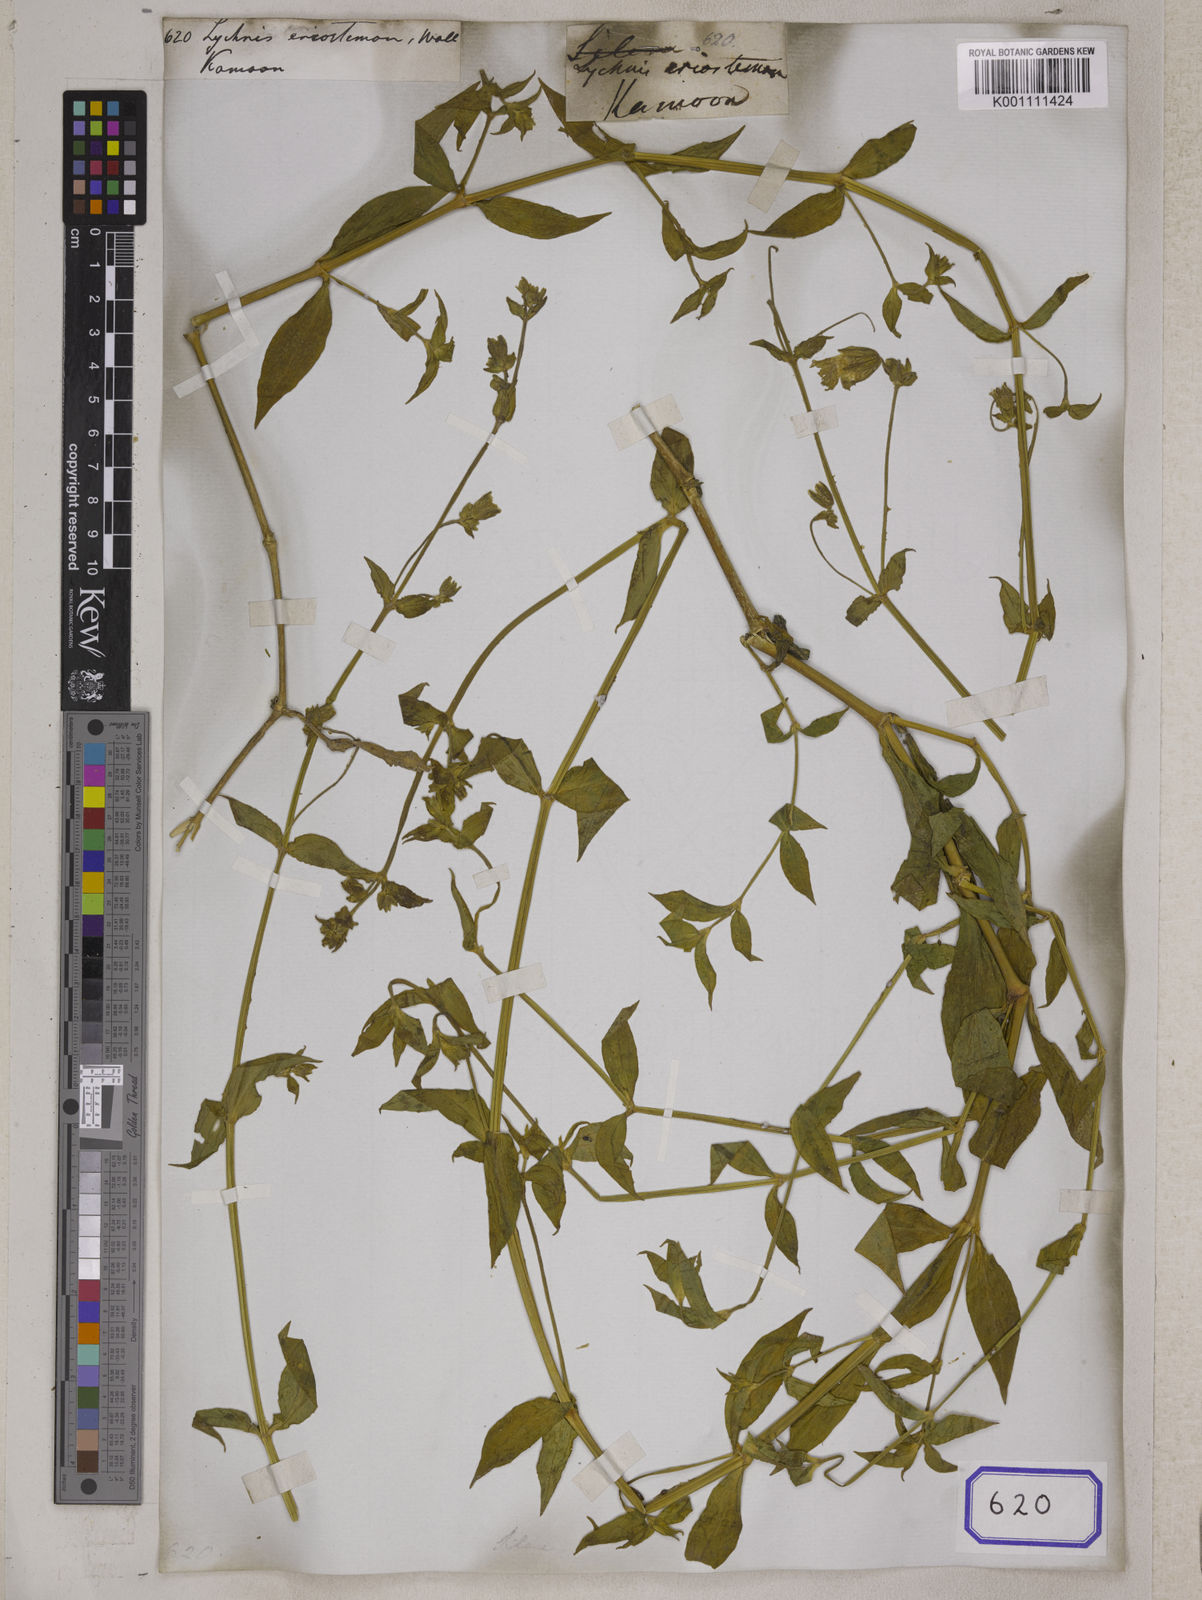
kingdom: Plantae
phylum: Tracheophyta
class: Magnoliopsida
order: Caryophyllales
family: Caryophyllaceae
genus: Silene
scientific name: Silene indica
